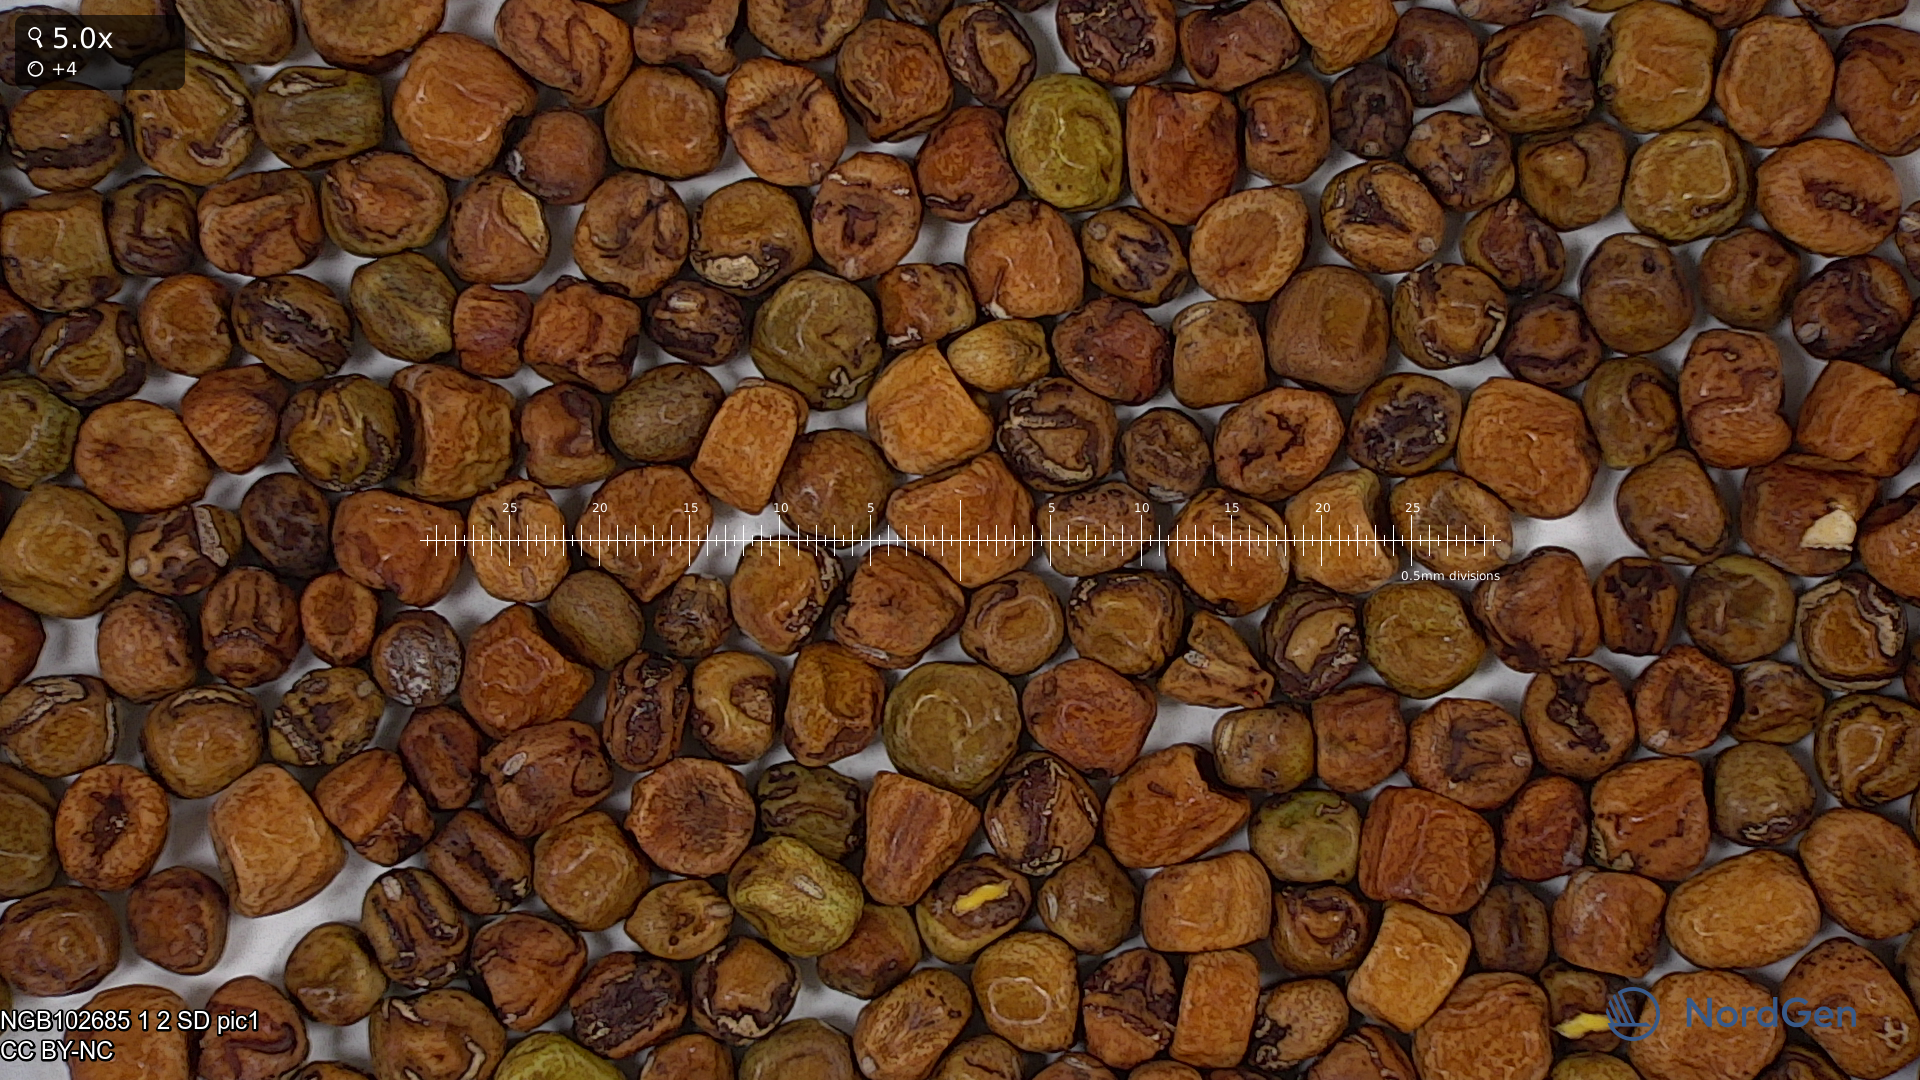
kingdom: Plantae
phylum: Tracheophyta
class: Magnoliopsida
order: Fabales
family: Fabaceae
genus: Lathyrus
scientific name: Lathyrus oleraceus
